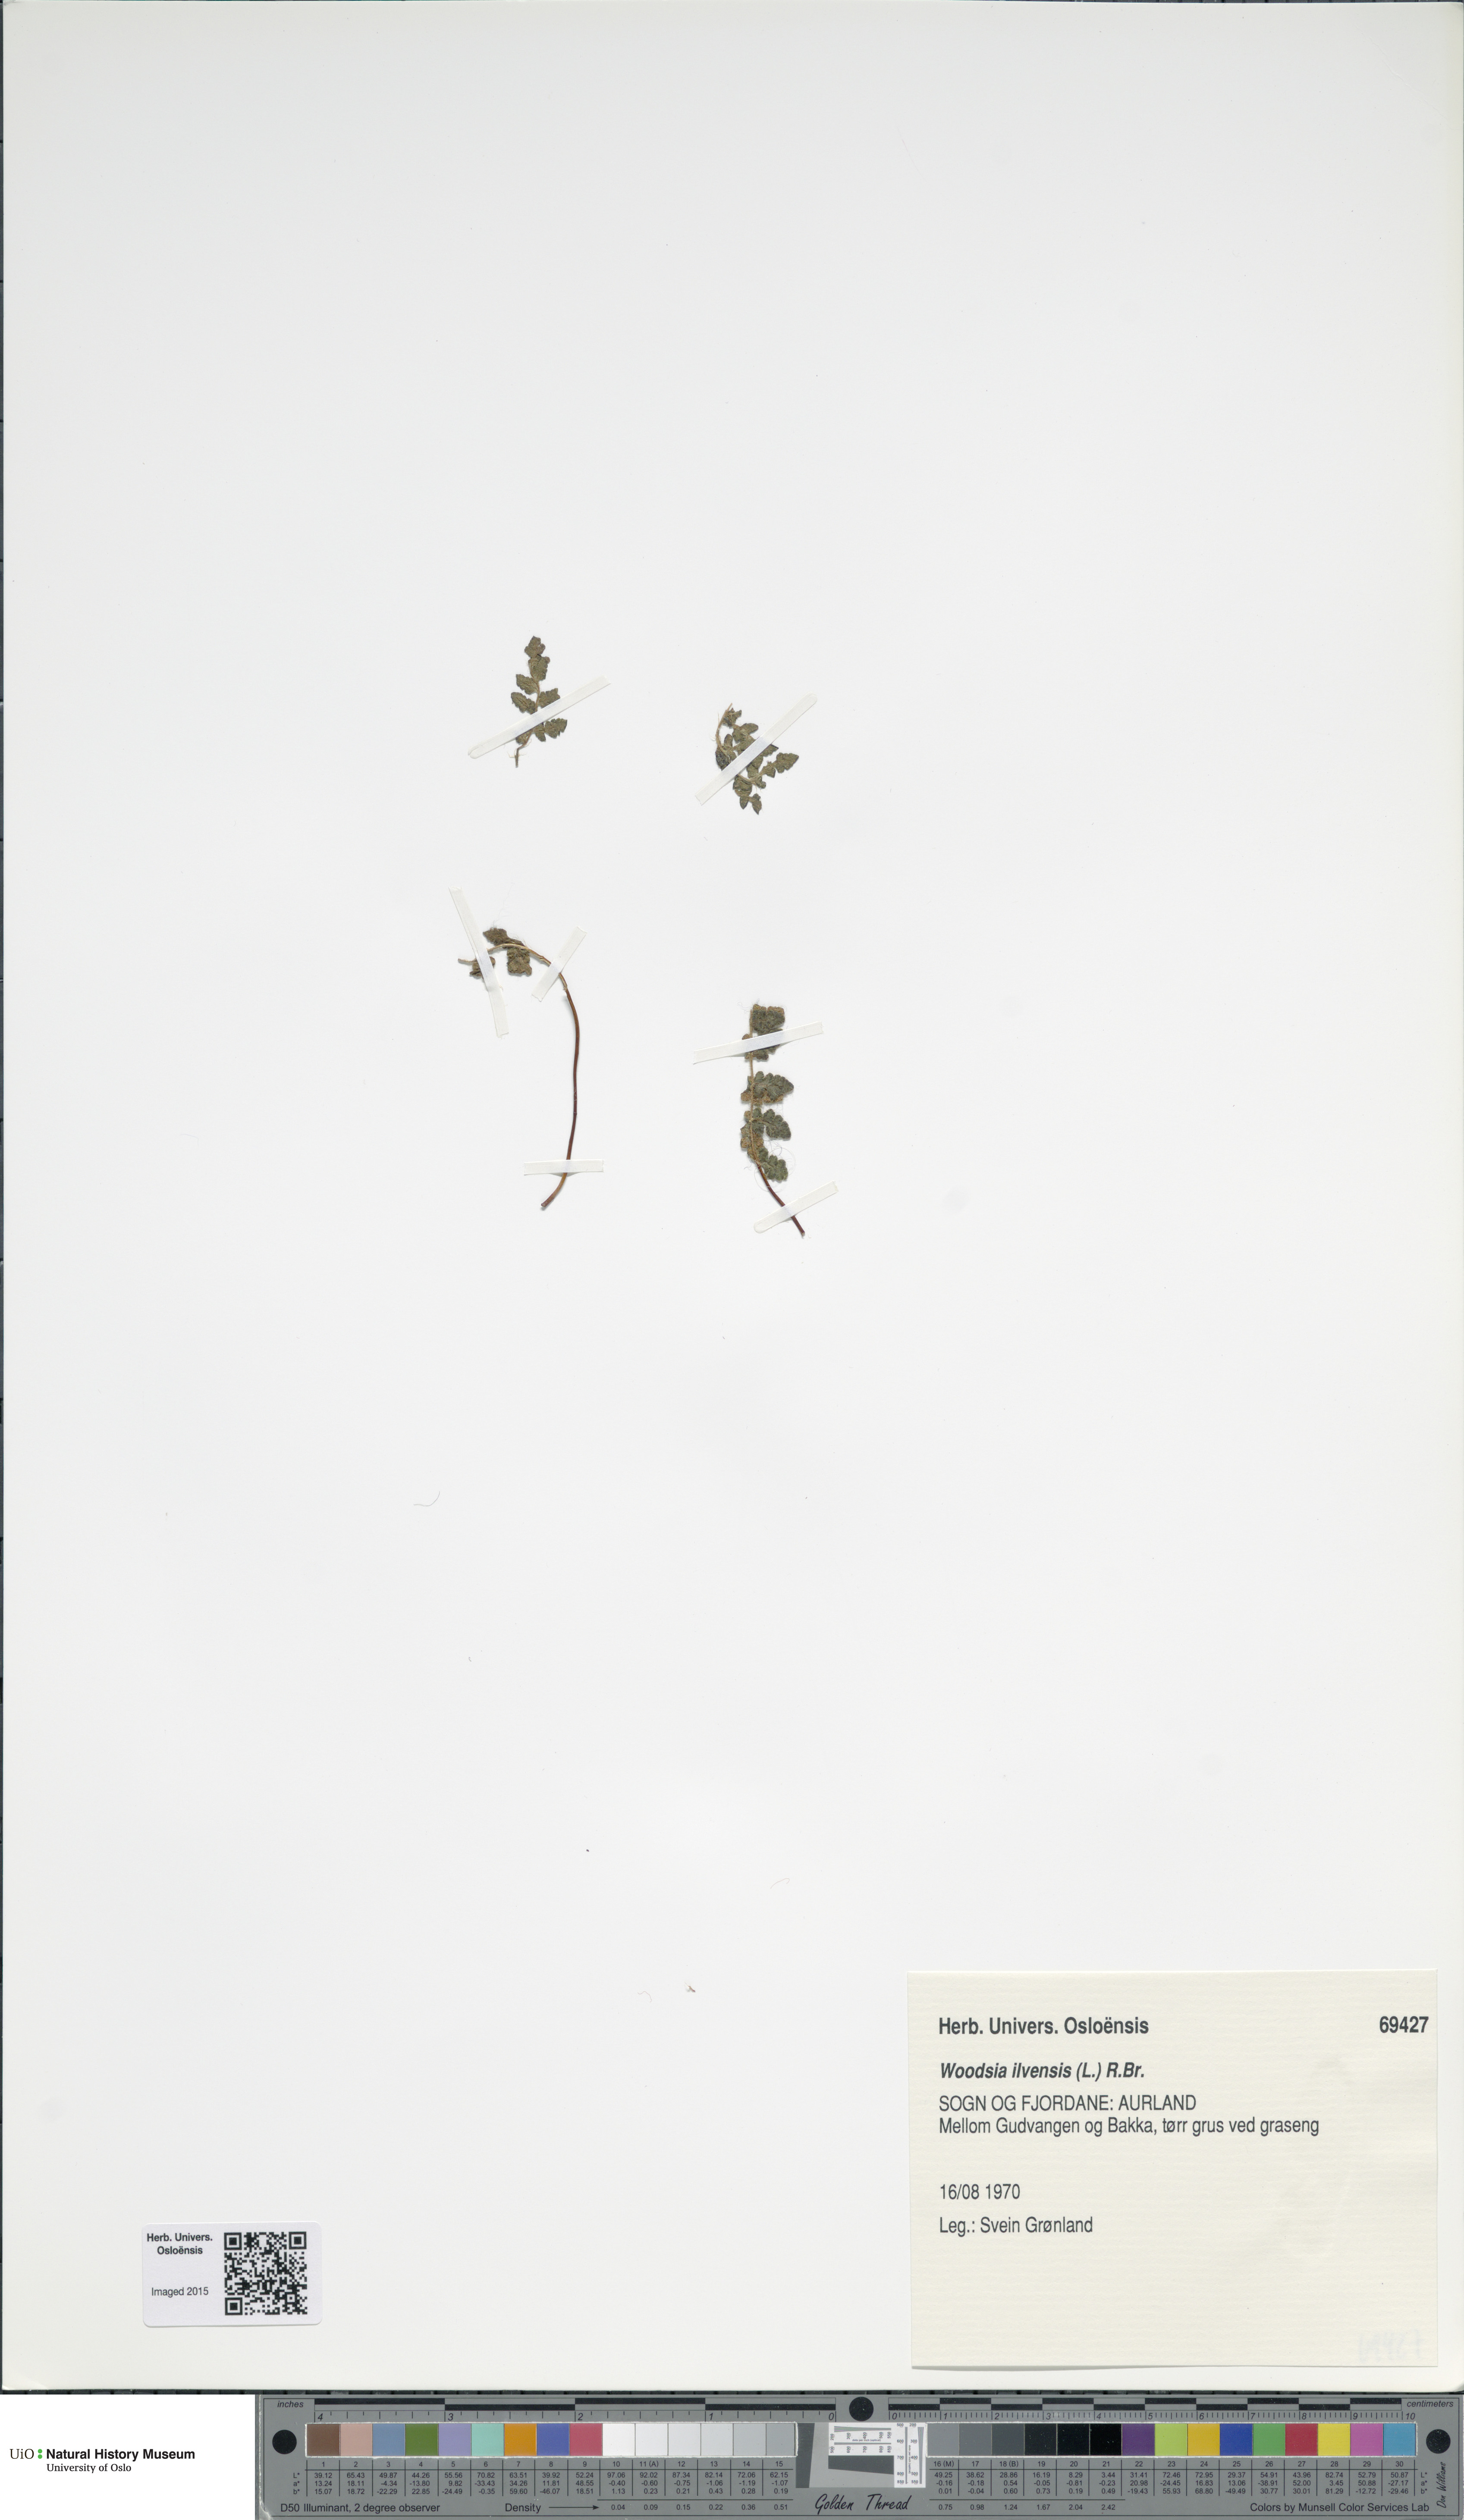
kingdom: Plantae
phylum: Tracheophyta
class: Polypodiopsida
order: Polypodiales
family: Woodsiaceae
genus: Woodsia
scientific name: Woodsia ilvensis
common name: Fragrant woodsia
